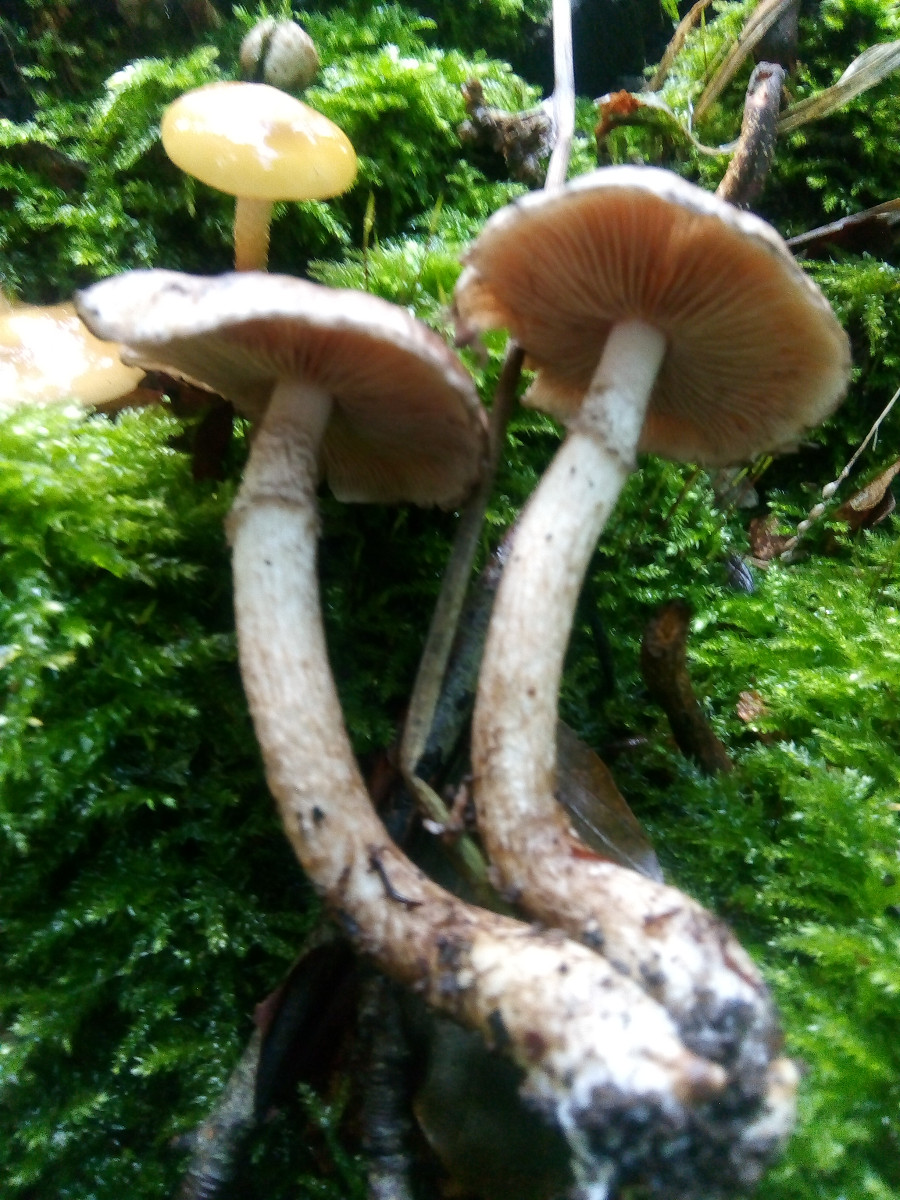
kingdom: Fungi
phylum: Basidiomycota
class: Agaricomycetes
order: Agaricales
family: Psathyrellaceae
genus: Psathyrella
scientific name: Psathyrella
